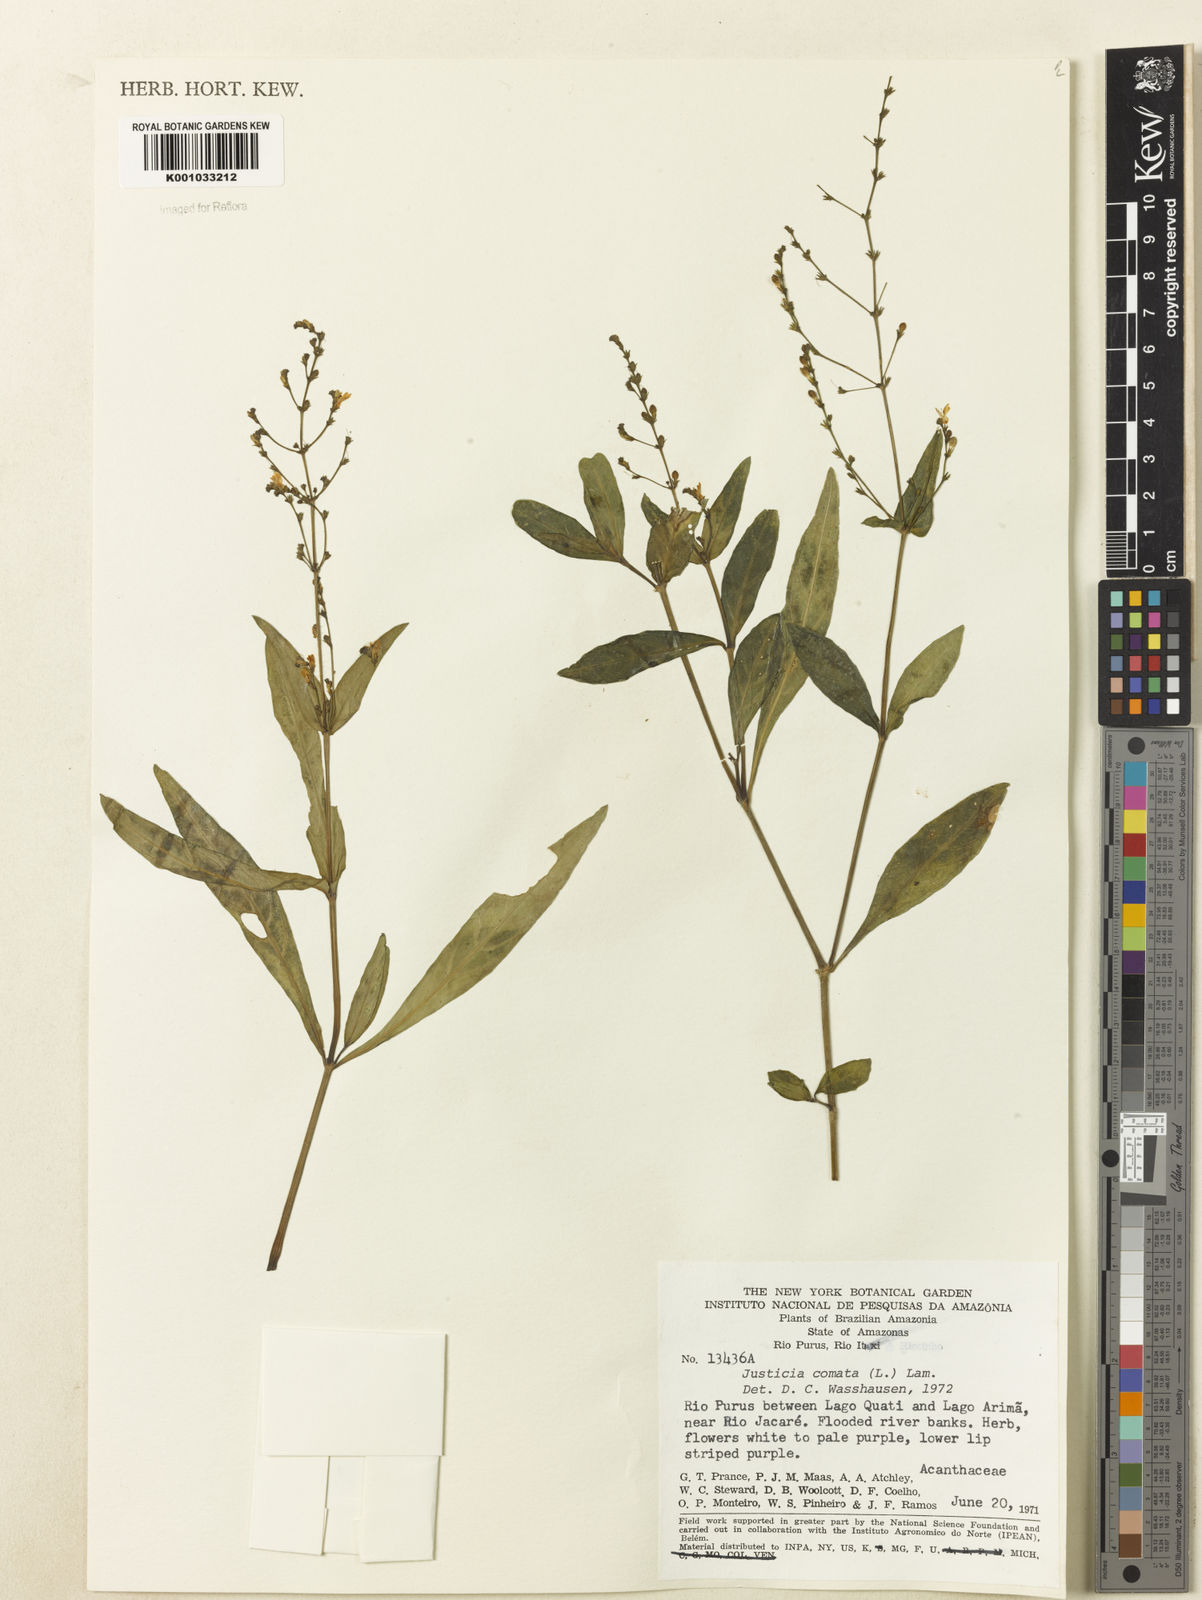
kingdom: Plantae
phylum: Tracheophyta
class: Magnoliopsida
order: Lamiales
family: Acanthaceae
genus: Dianthera
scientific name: Dianthera comata
